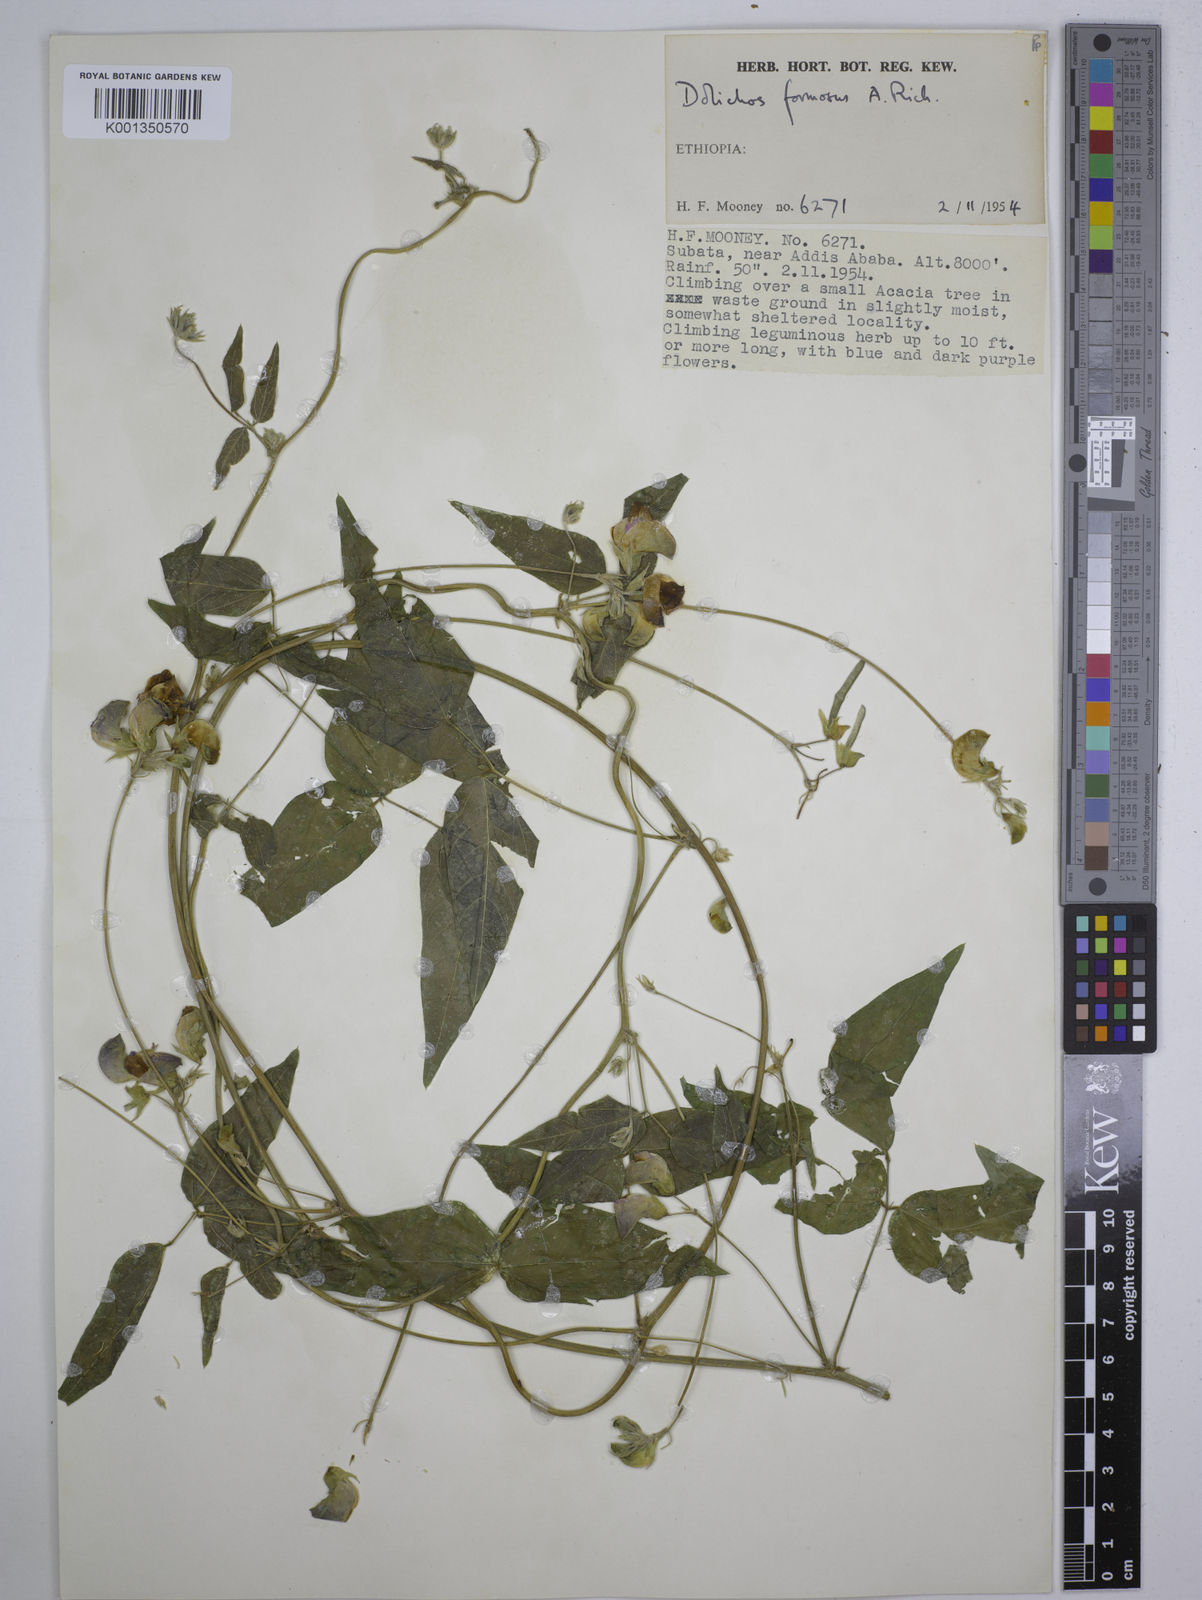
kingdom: Plantae
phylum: Tracheophyta
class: Magnoliopsida
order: Fabales
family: Fabaceae
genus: Dolichos
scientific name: Dolichos
